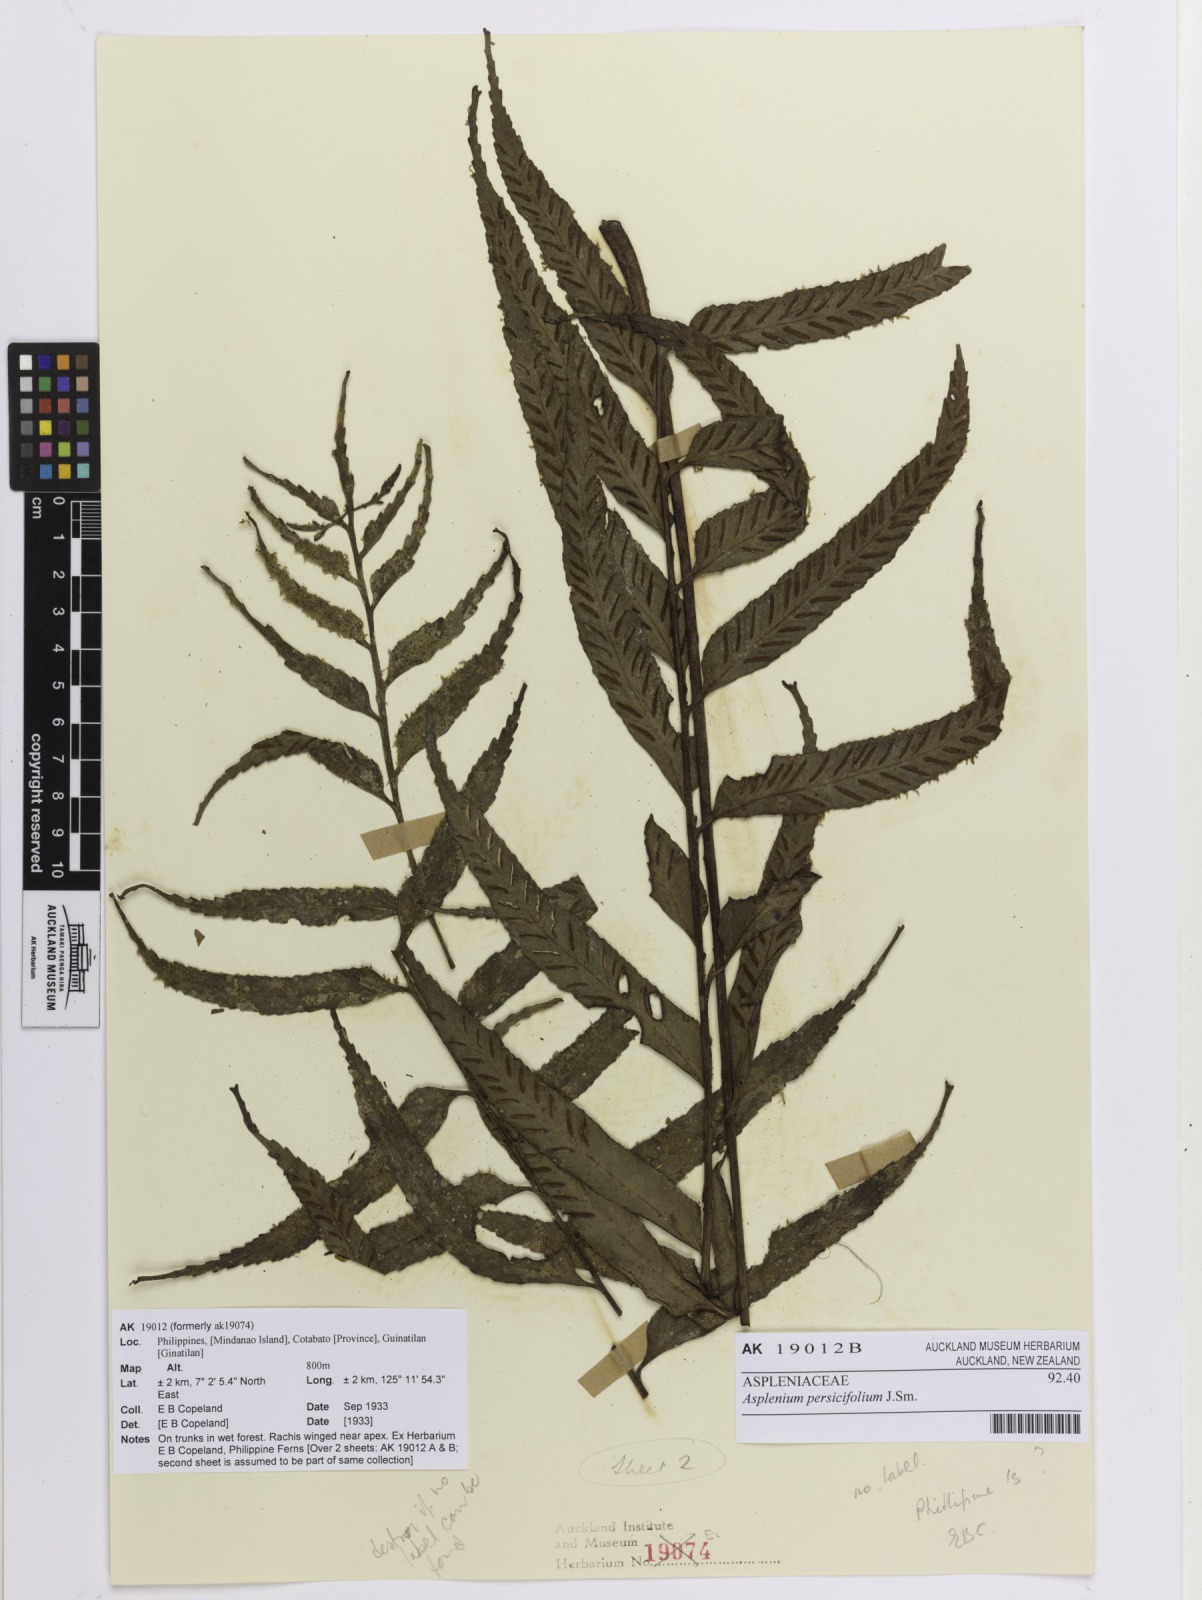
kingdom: Plantae
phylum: Tracheophyta
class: Polypodiopsida
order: Polypodiales
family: Aspleniaceae
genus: Asplenium
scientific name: Asplenium persicifolium
